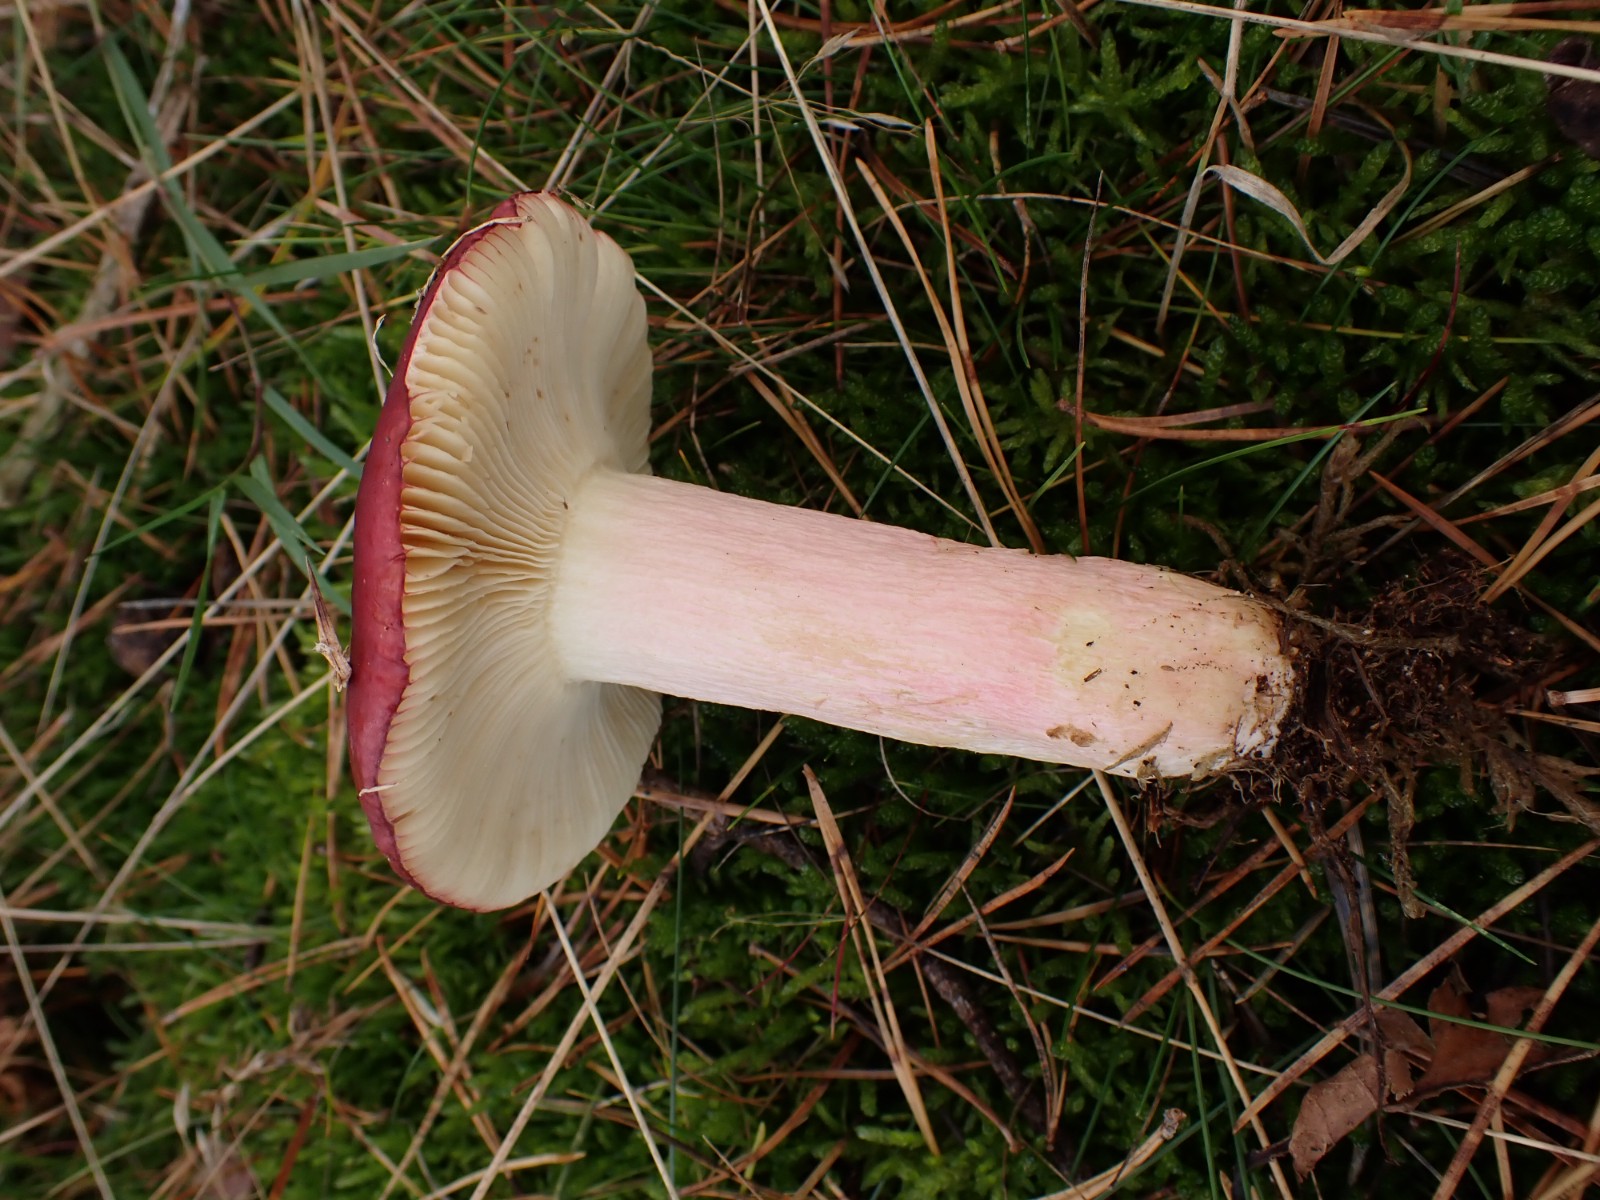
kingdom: Fungi
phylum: Basidiomycota
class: Agaricomycetes
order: Russulales
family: Russulaceae
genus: Russula
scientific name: Russula xerampelina
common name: hummer-skørhat
